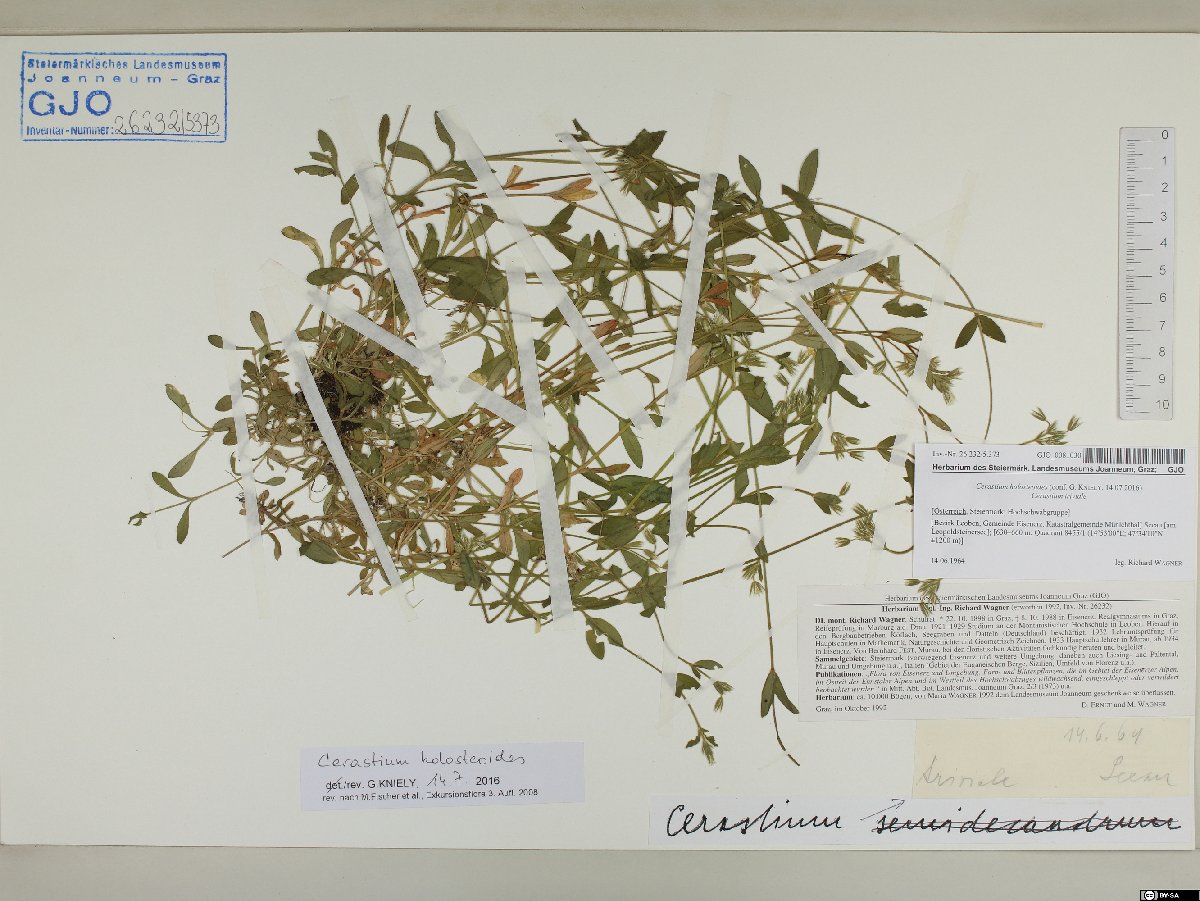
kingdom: Plantae
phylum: Tracheophyta
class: Magnoliopsida
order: Caryophyllales
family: Caryophyllaceae
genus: Cerastium
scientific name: Cerastium holosteoides
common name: Big chickweed
